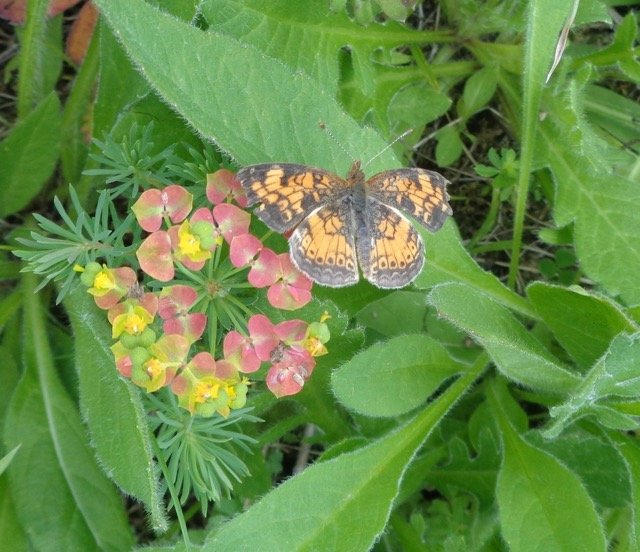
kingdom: Animalia
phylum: Arthropoda
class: Insecta
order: Lepidoptera
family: Nymphalidae
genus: Phyciodes
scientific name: Phyciodes tharos
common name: Pearl Crescent
